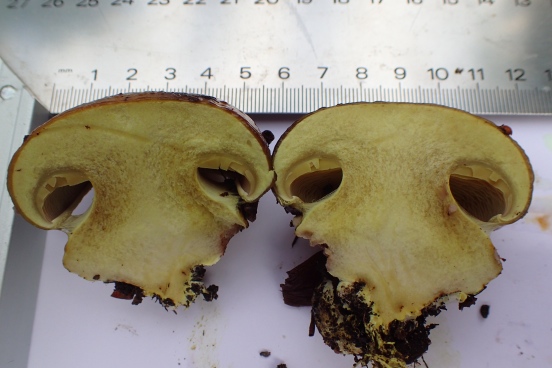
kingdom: Fungi
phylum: Basidiomycota
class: Agaricomycetes
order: Agaricales
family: Cortinariaceae
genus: Calonarius
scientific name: Calonarius citrinus
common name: citrongul slørhat
